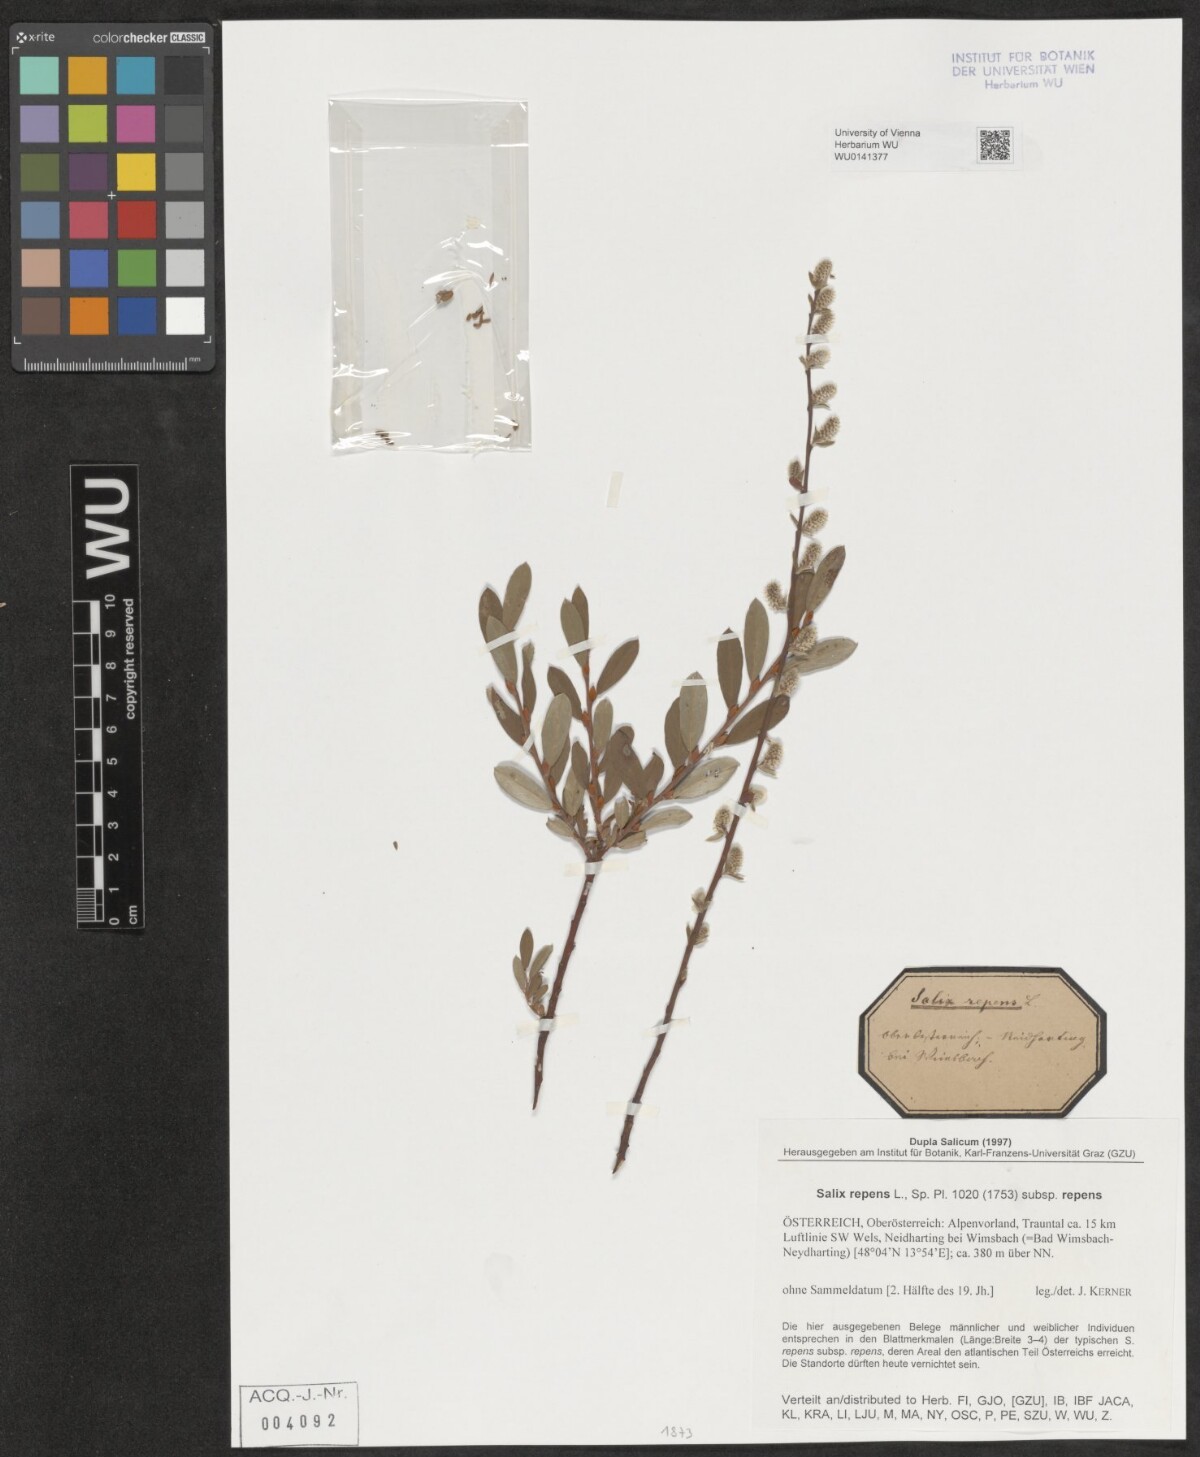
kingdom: Plantae
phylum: Tracheophyta
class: Magnoliopsida
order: Malpighiales
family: Salicaceae
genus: Salix
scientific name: Salix repens
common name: Creeping willow
